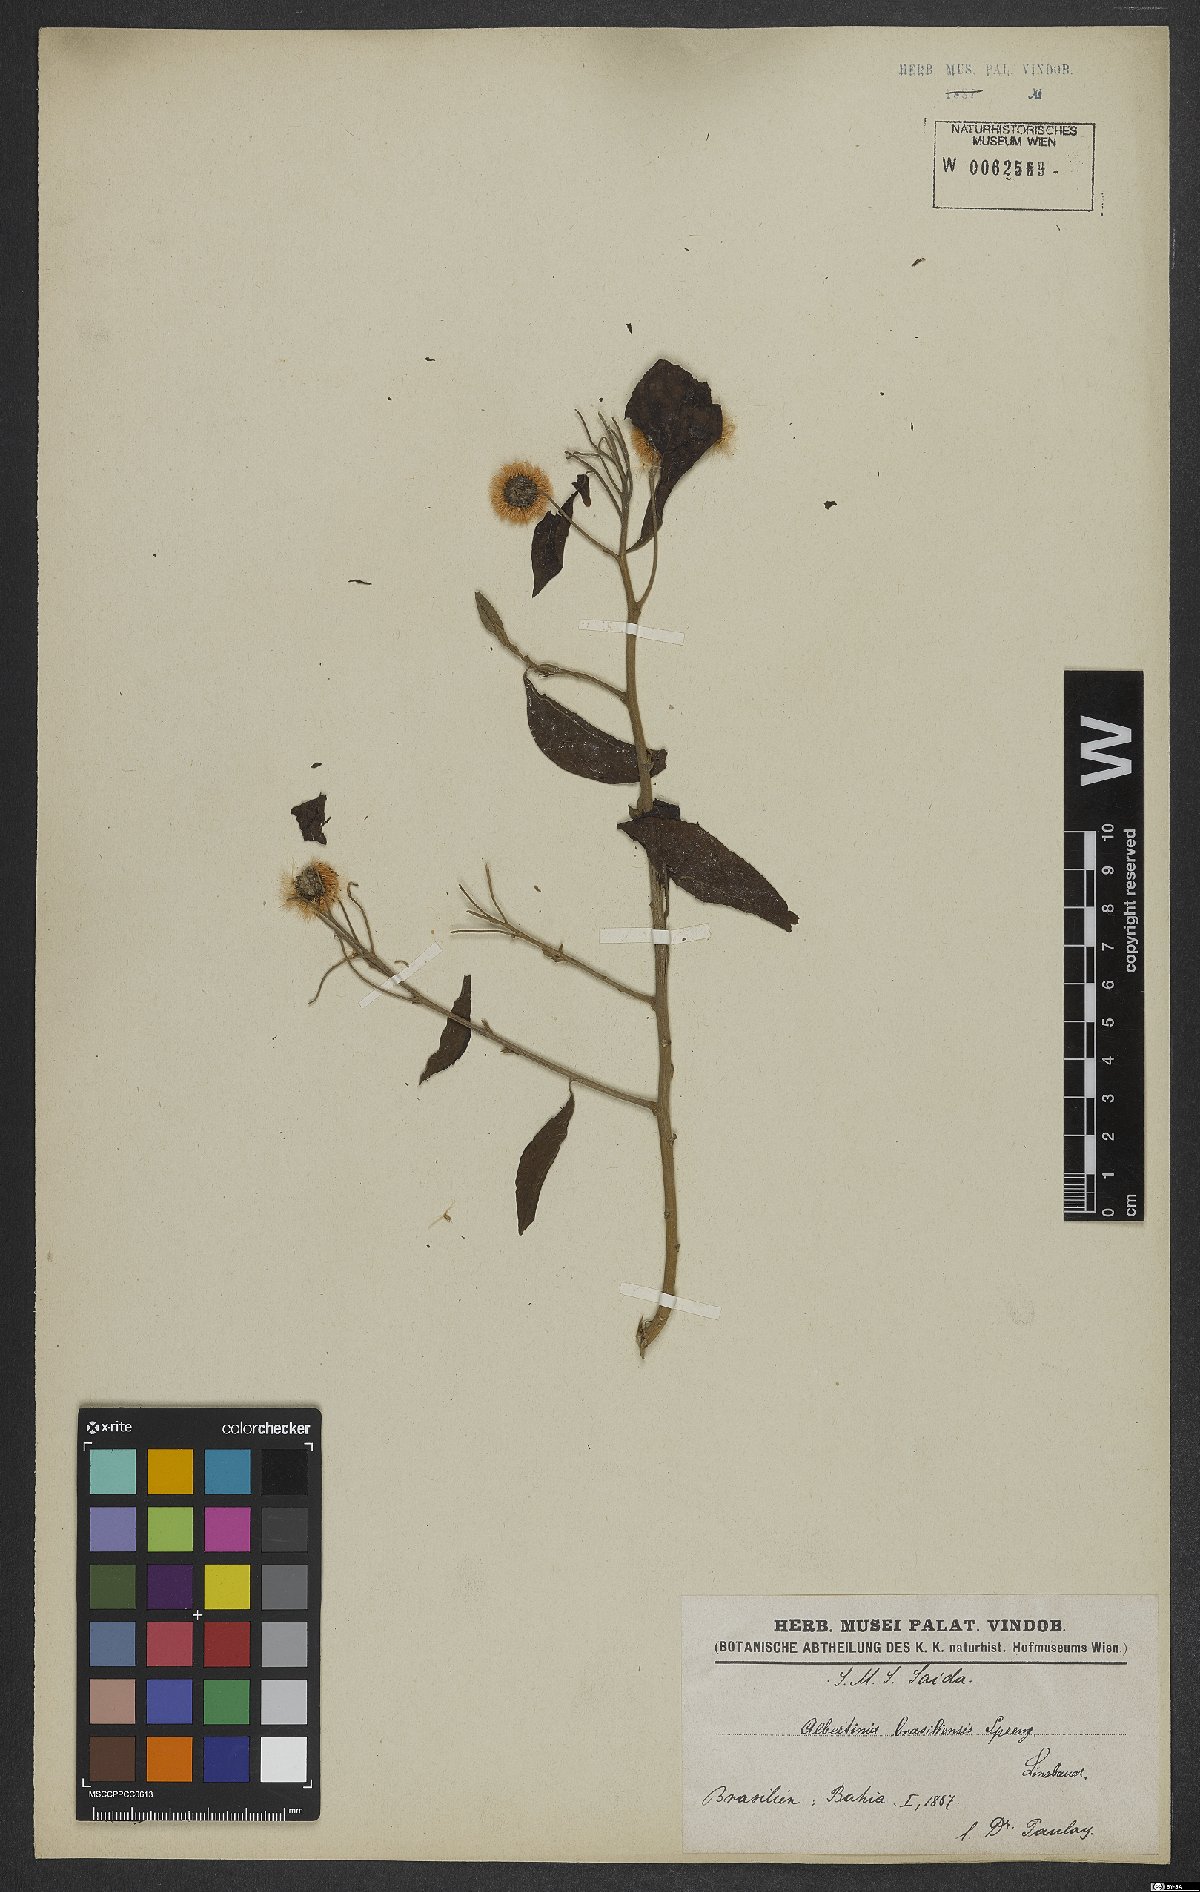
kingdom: Plantae
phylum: Tracheophyta
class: Magnoliopsida
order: Asterales
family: Asteraceae
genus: Albertinia
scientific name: Albertinia brasiliensis
